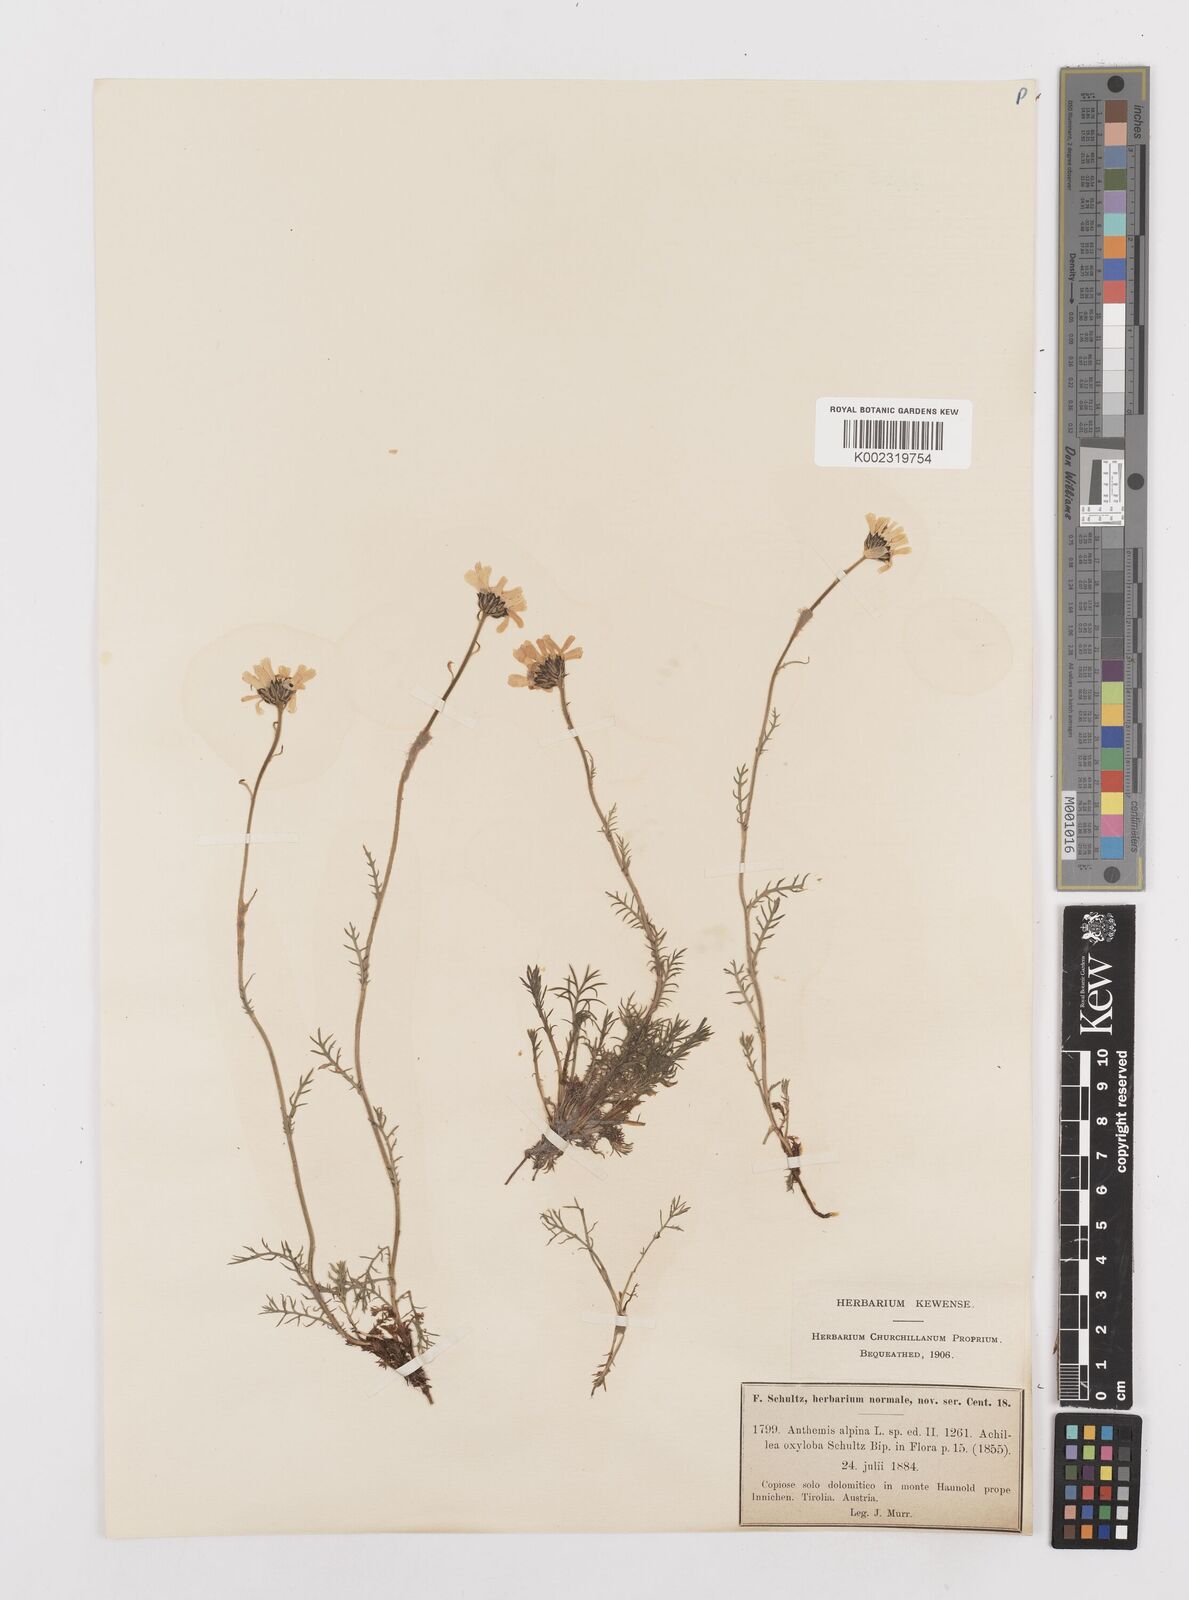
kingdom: Plantae
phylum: Tracheophyta
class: Magnoliopsida
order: Asterales
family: Asteraceae
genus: Achillea
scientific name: Achillea oxyloba
